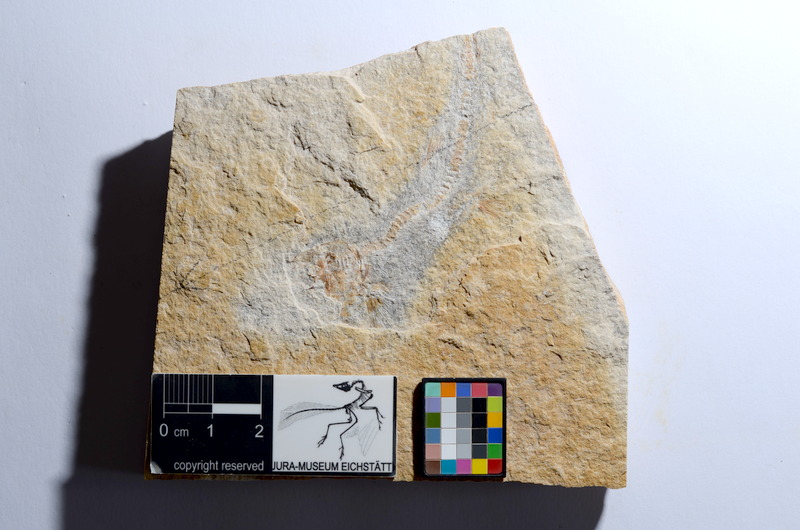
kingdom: Animalia
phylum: Chordata
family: Ascalaboidae
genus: Tharsis
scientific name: Tharsis dubius
